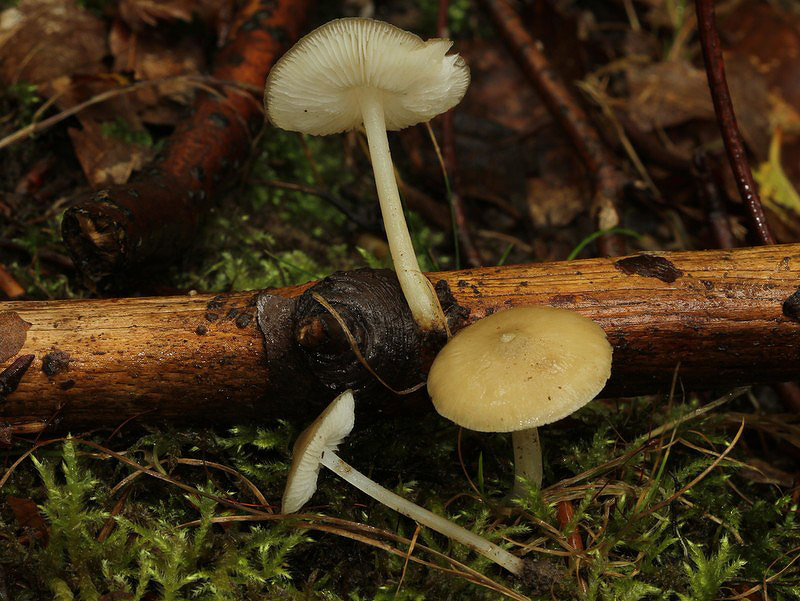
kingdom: Fungi
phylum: Basidiomycota
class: Agaricomycetes
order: Agaricales
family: Porotheleaceae
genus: Hydropodia
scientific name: Hydropodia subalpina
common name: vår-fnugfod
